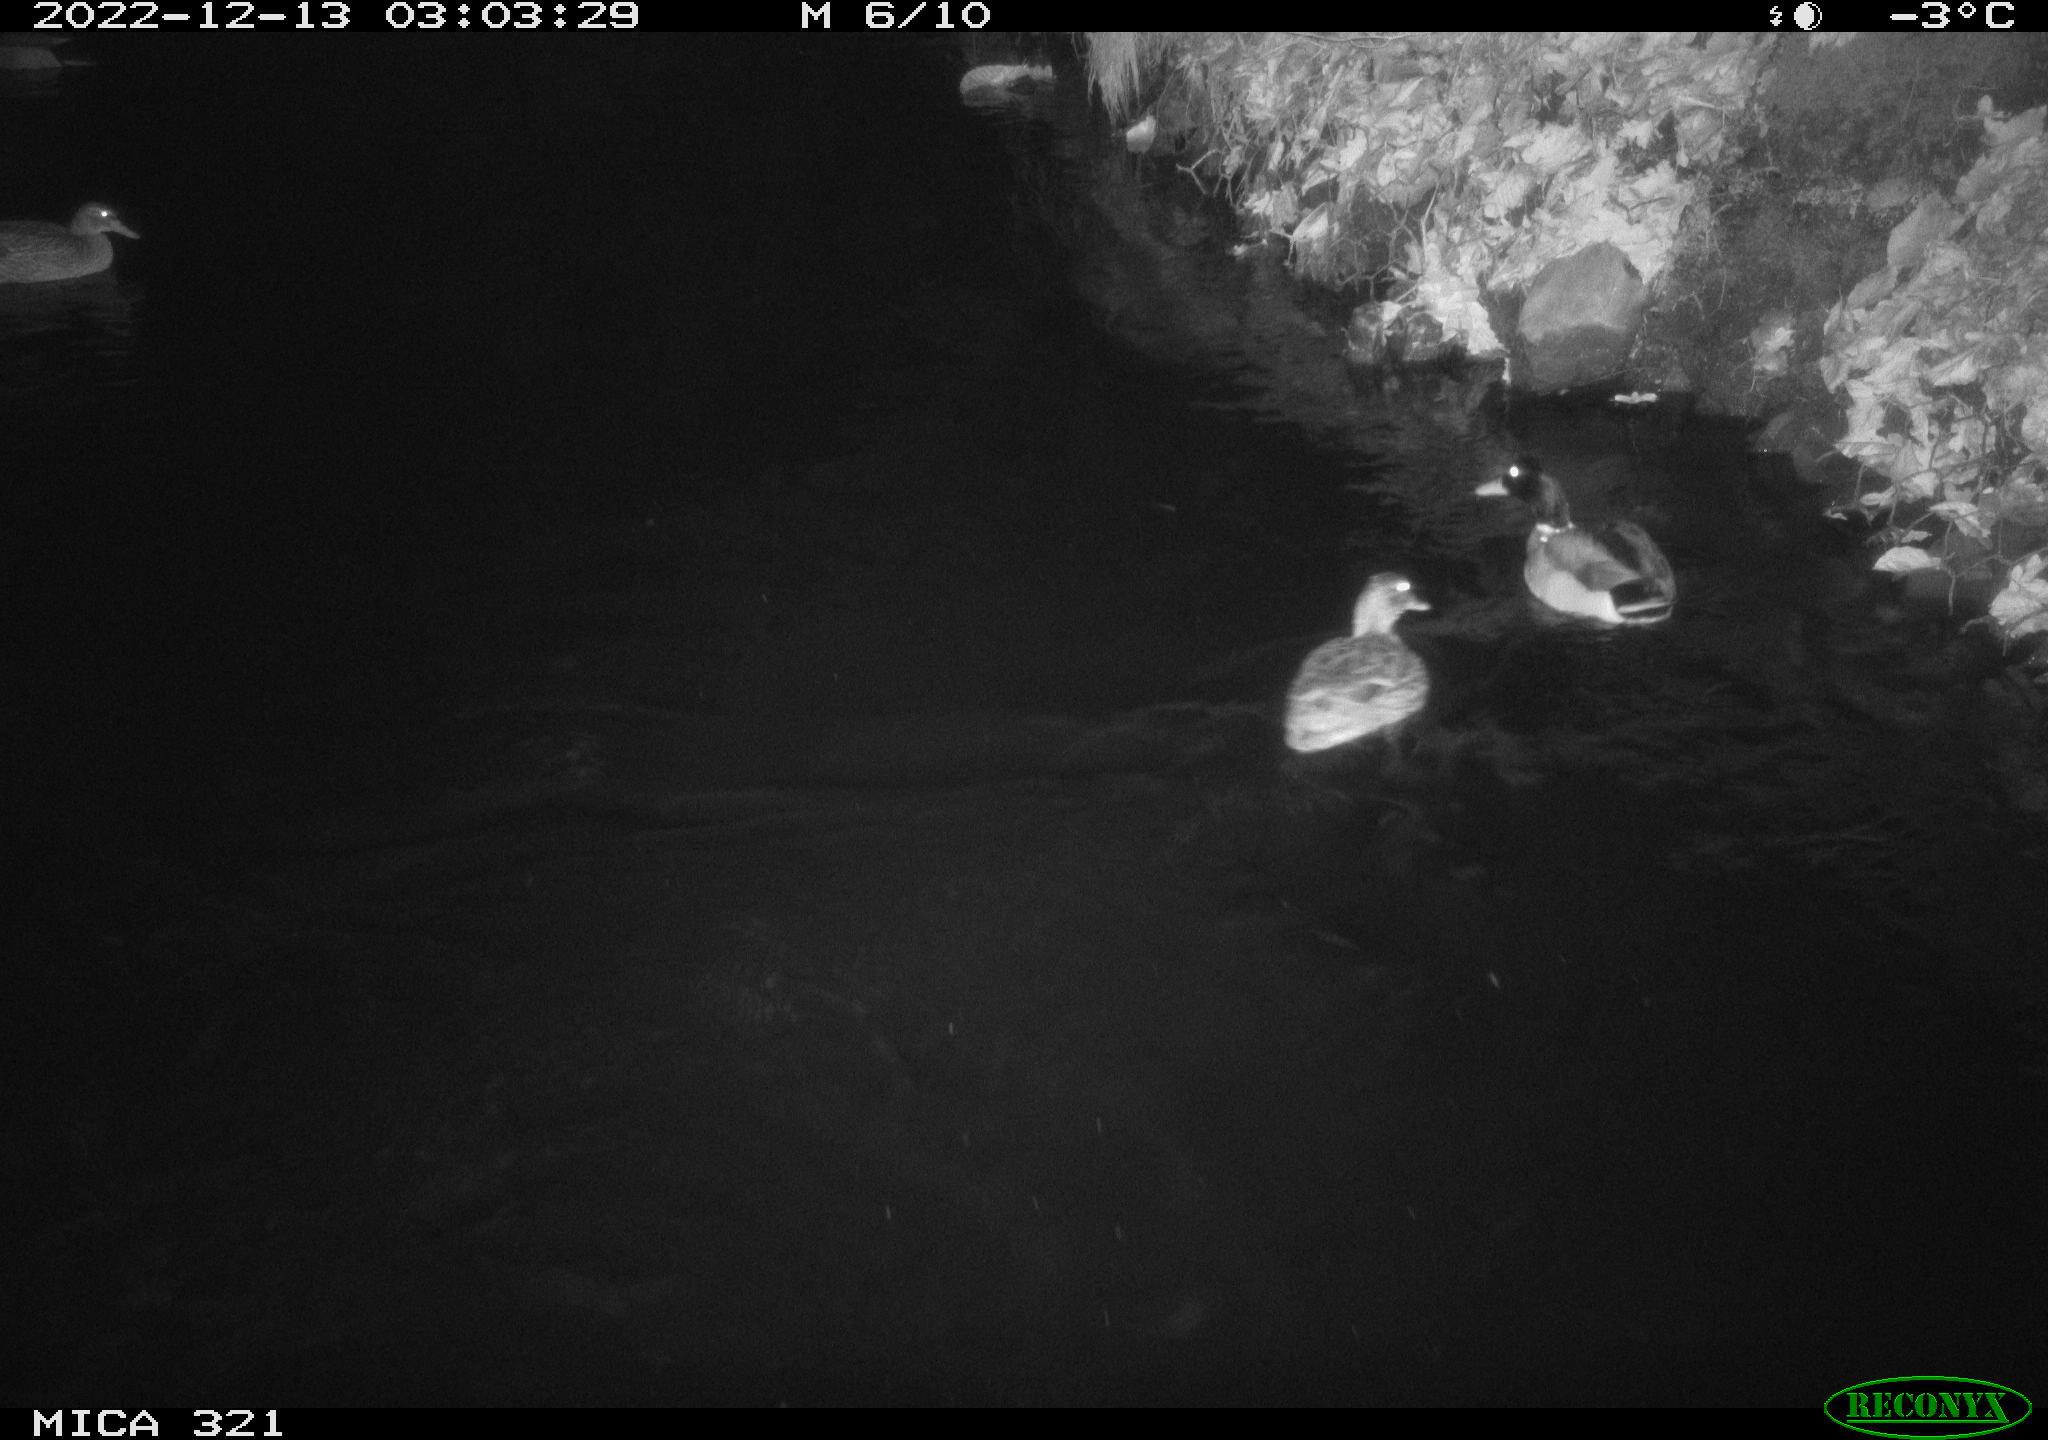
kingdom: Animalia
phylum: Chordata
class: Aves
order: Anseriformes
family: Anatidae
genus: Anas
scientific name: Anas
